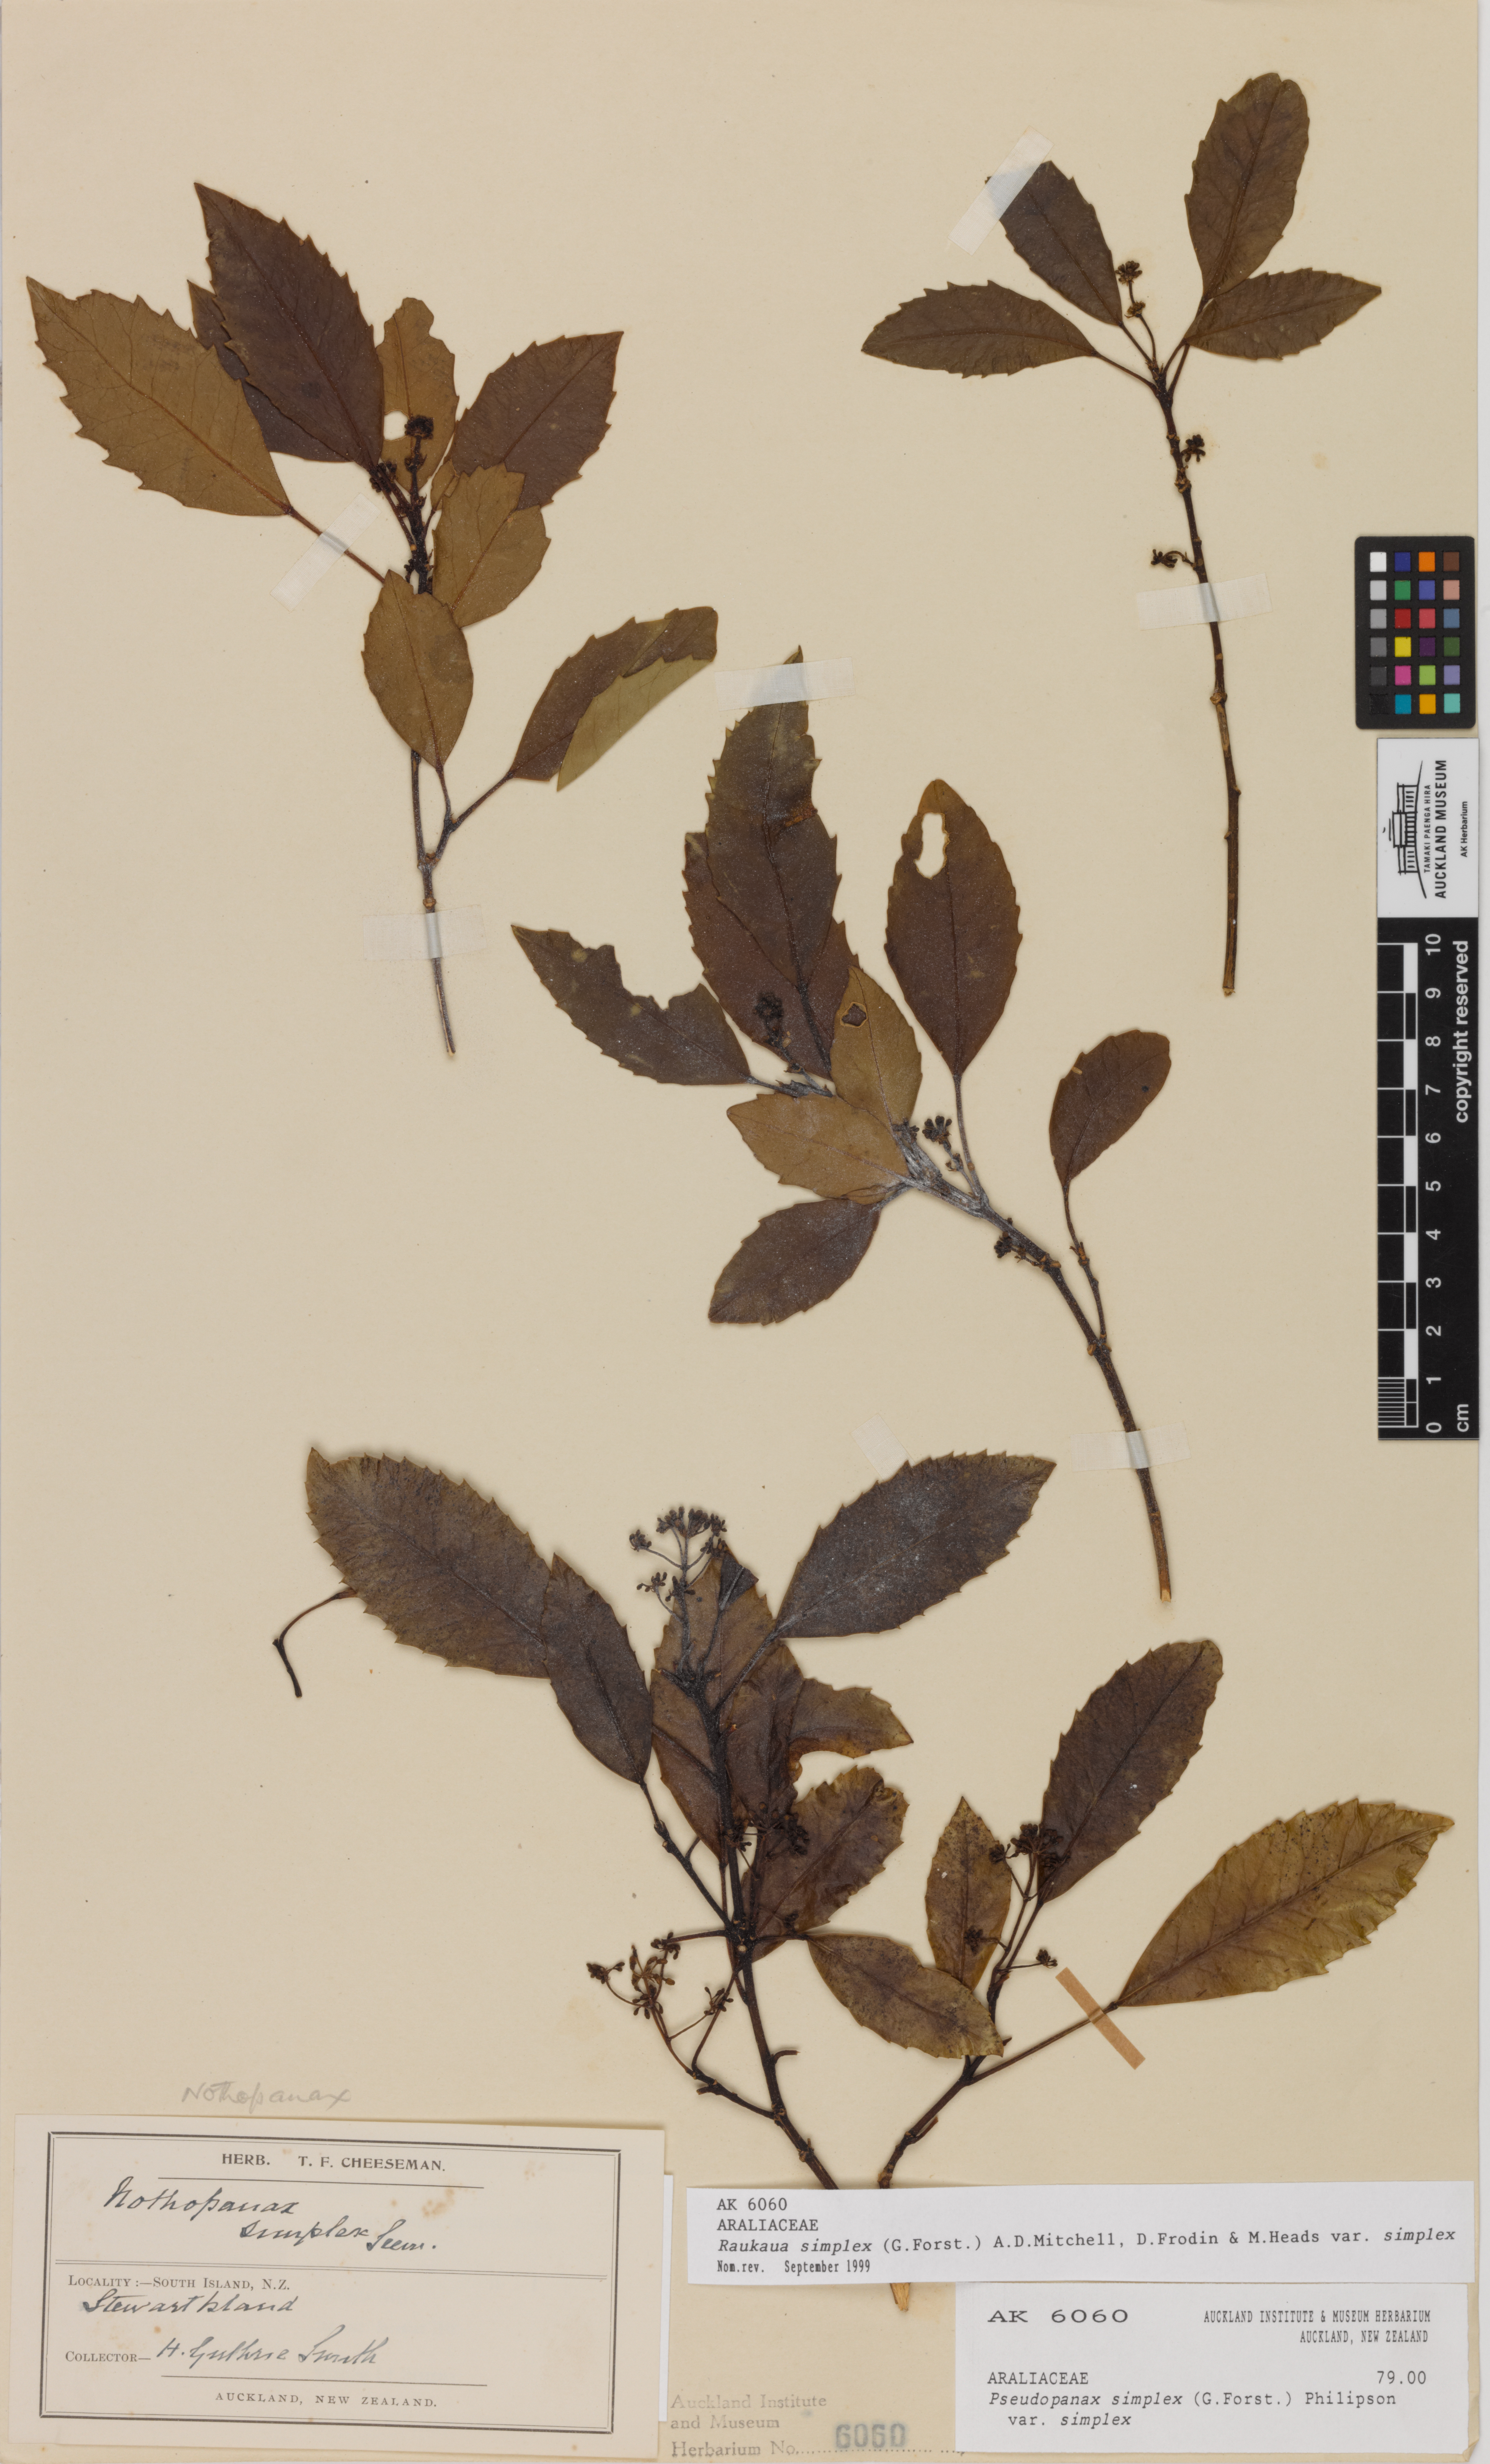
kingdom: Plantae
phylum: Tracheophyta
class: Magnoliopsida
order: Apiales
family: Araliaceae
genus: Raukaua
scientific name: Raukaua simplex
